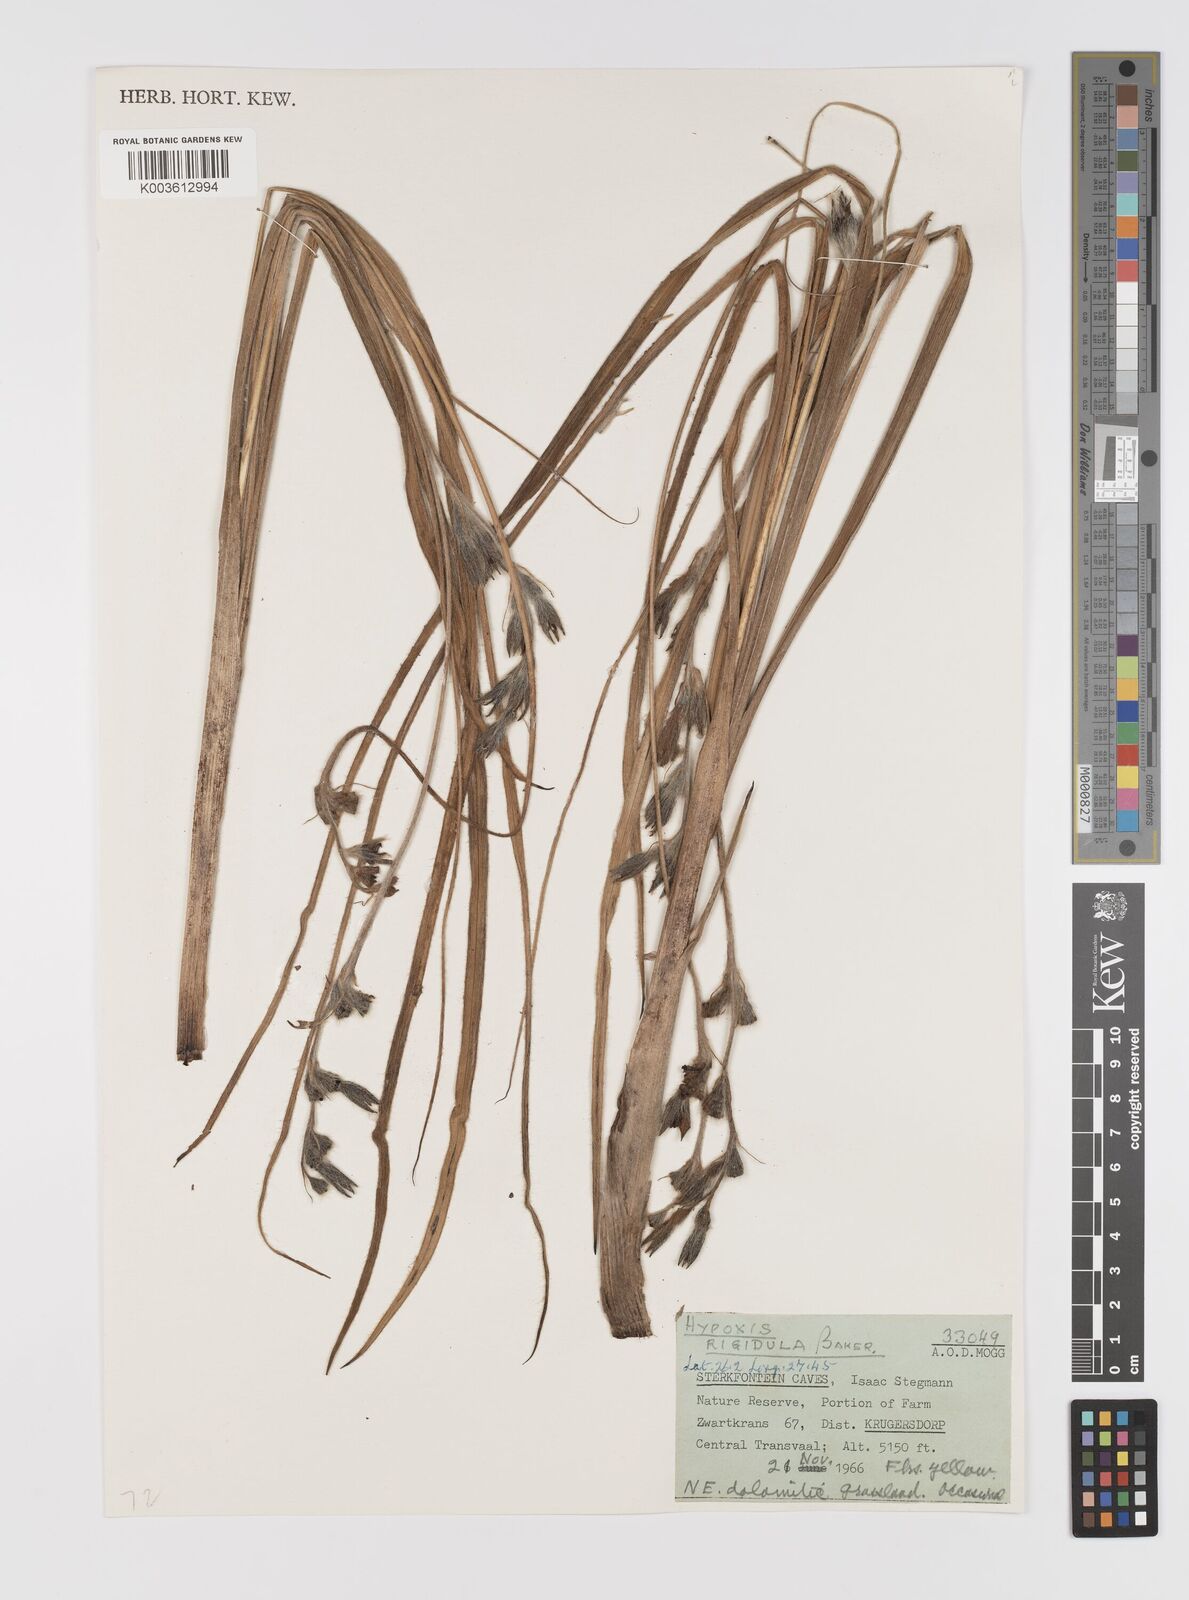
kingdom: Plantae
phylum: Tracheophyta
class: Liliopsida
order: Asparagales
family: Hypoxidaceae
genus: Hypoxis
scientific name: Hypoxis rigidula
